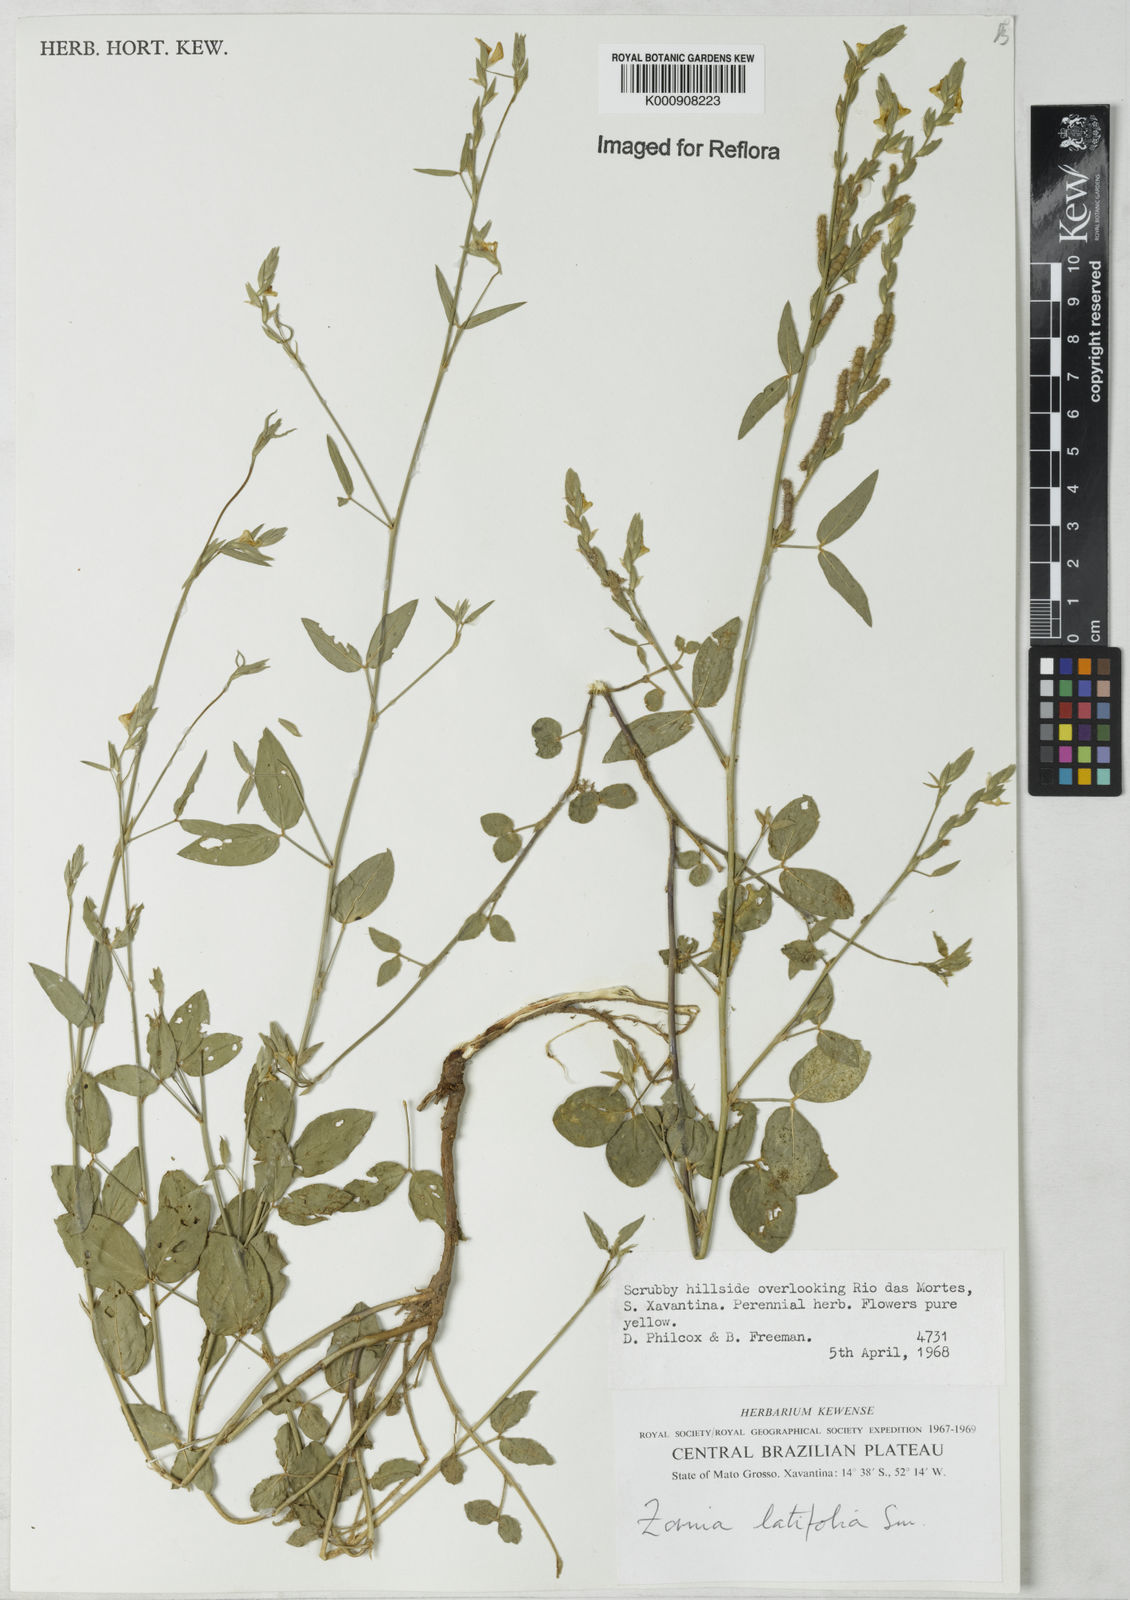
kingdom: Plantae
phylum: Tracheophyta
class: Magnoliopsida
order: Fabales
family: Fabaceae
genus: Zornia
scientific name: Zornia latifolia
